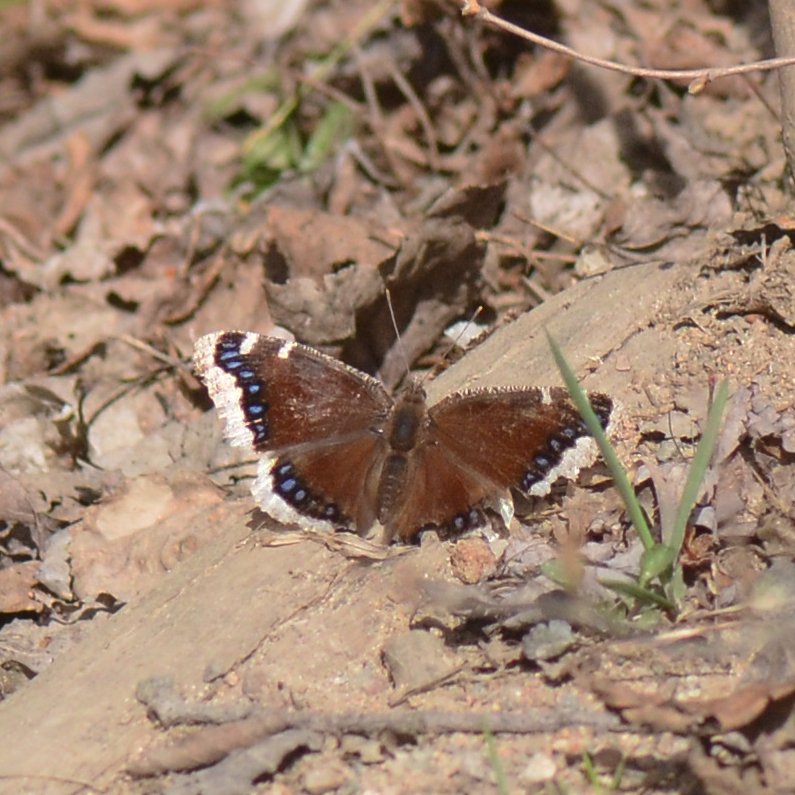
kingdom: Animalia
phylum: Arthropoda
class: Insecta
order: Lepidoptera
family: Nymphalidae
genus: Nymphalis
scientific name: Nymphalis antiopa
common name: Mourning Cloak
